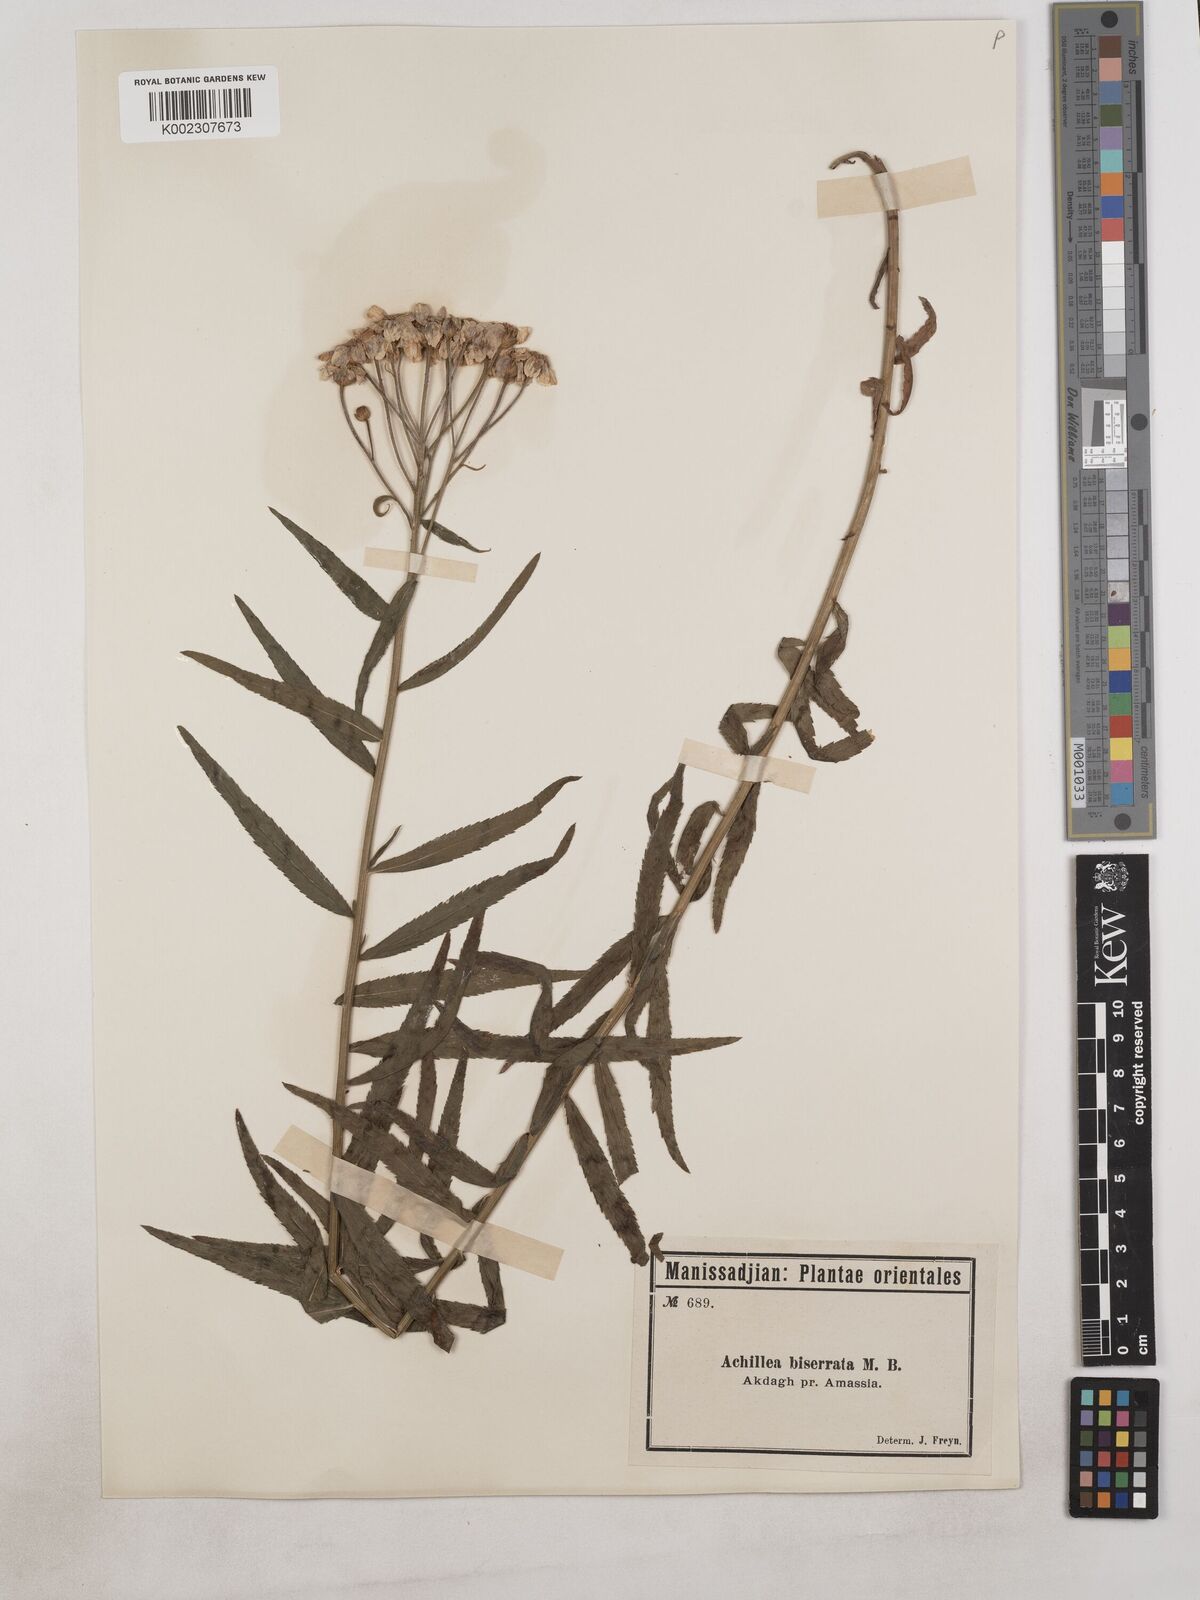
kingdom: Plantae
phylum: Tracheophyta
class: Magnoliopsida
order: Asterales
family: Asteraceae
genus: Achillea
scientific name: Achillea biserrata
